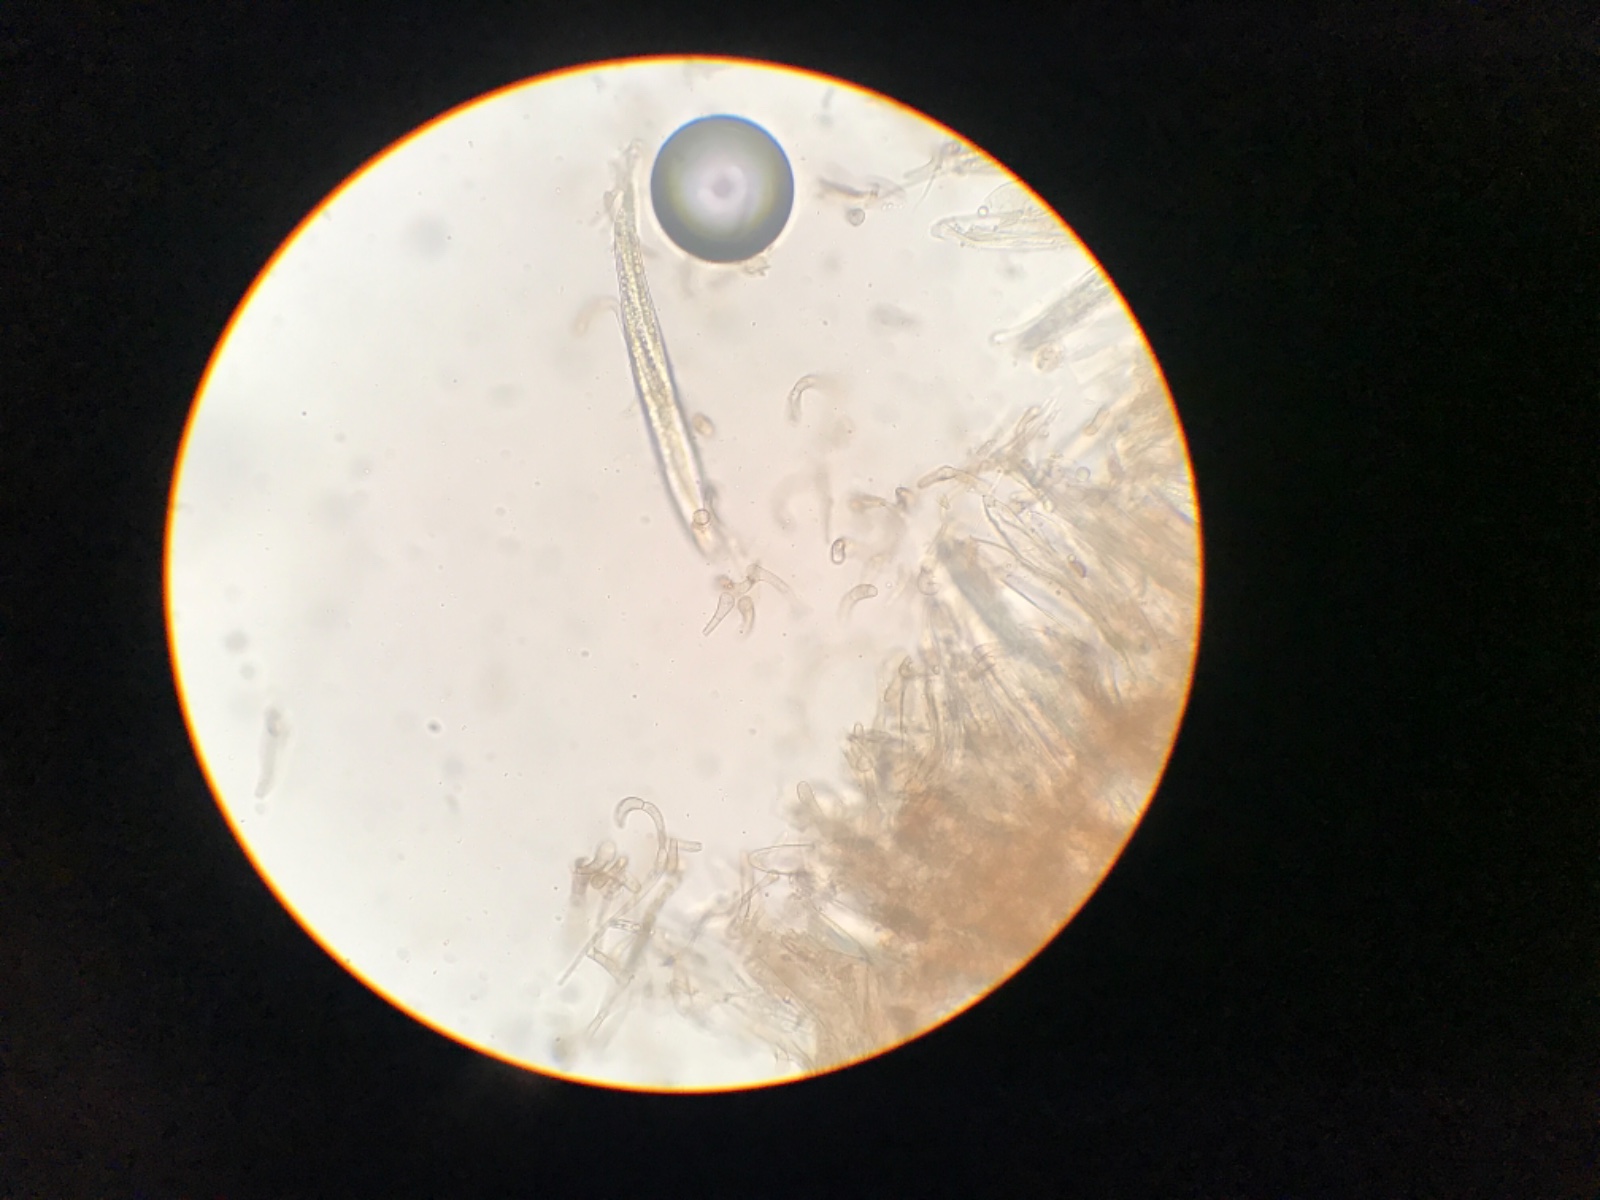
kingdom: Fungi
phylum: Ascomycota
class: Geoglossomycetes
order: Geoglossales
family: Geoglossaceae
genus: Geoglossum
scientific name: Geoglossum fallax
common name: småskællet jordtunge
